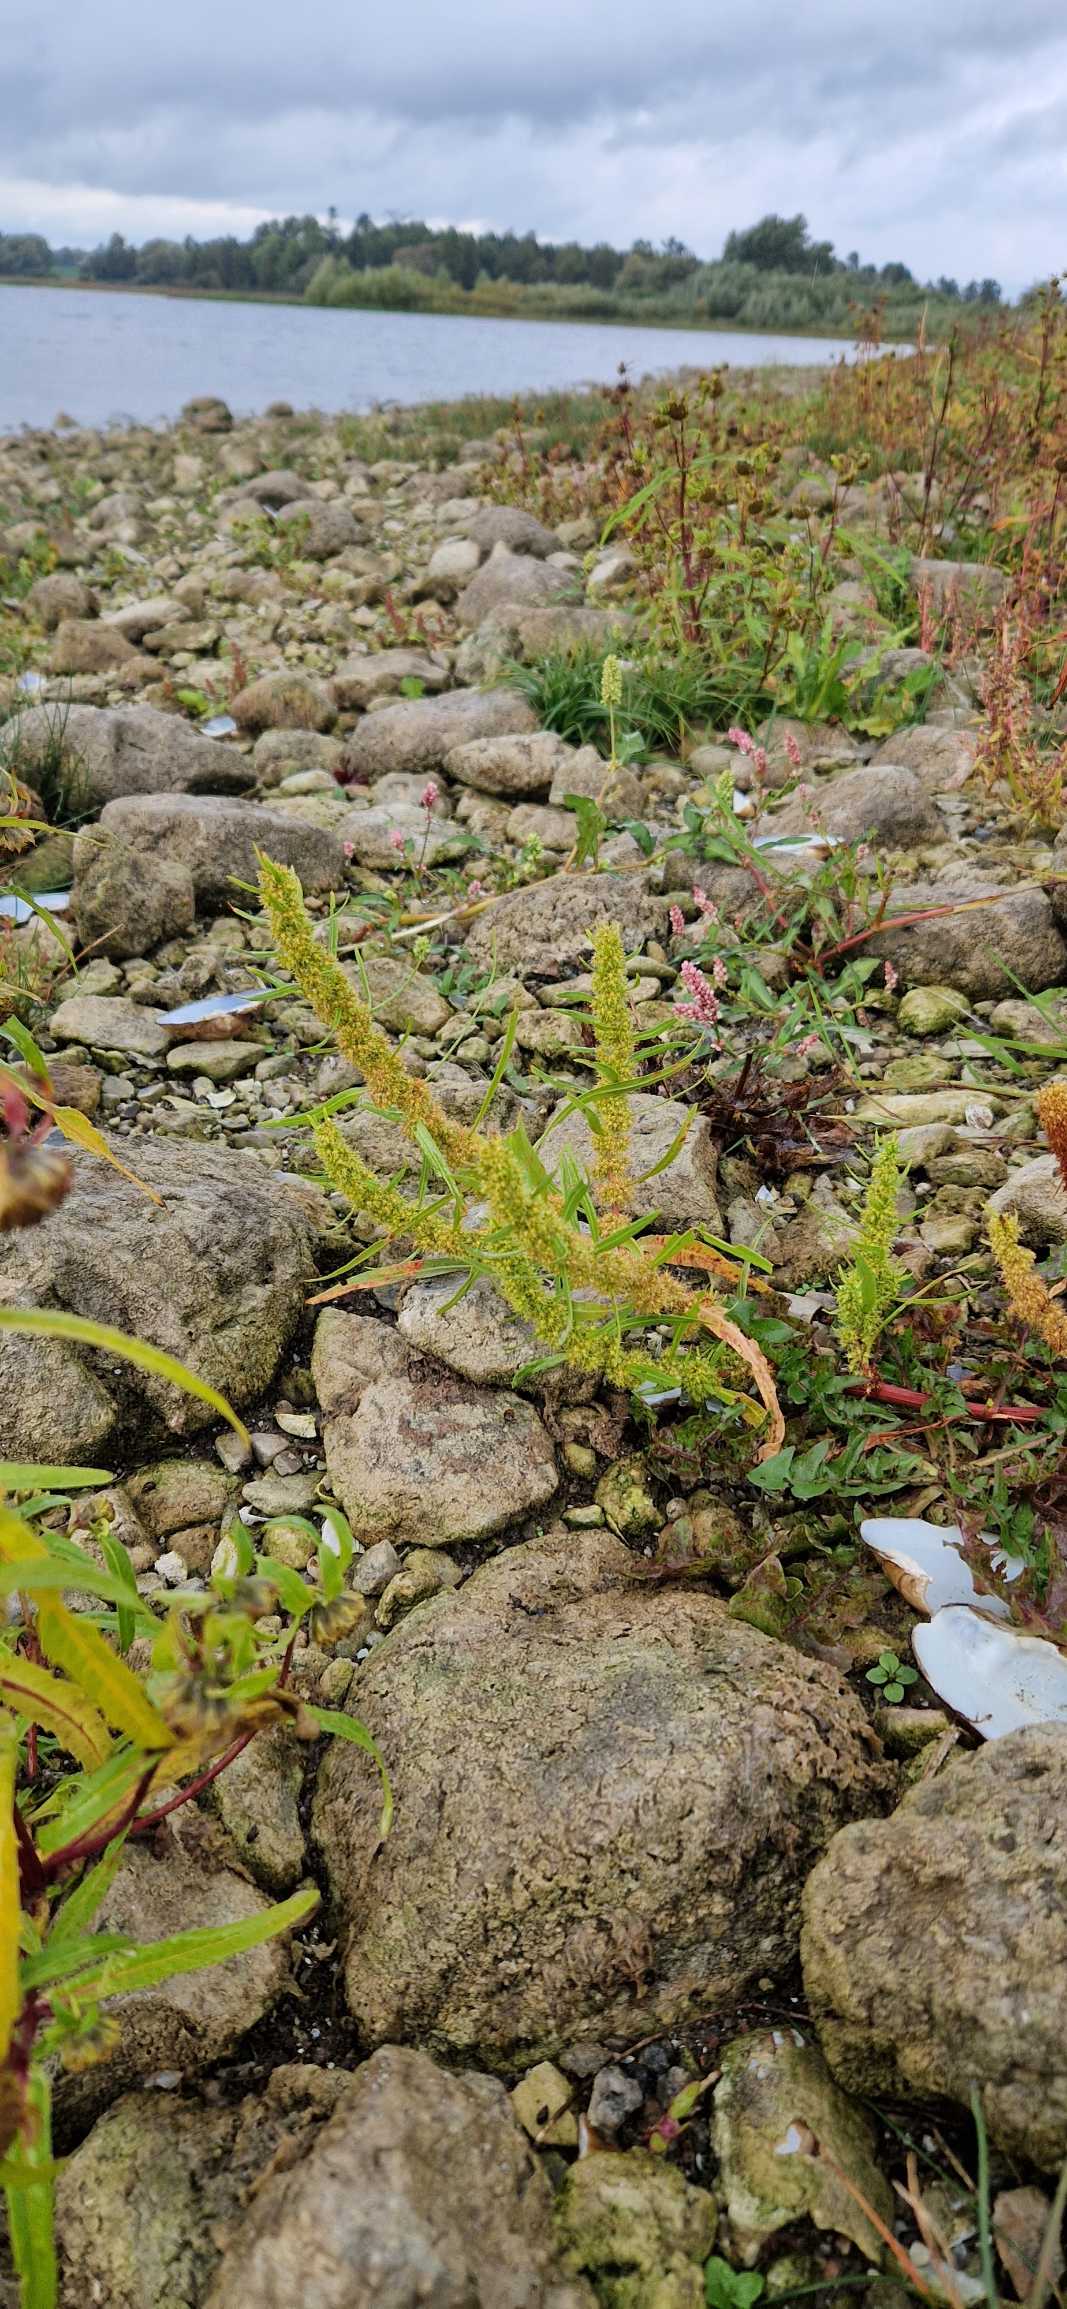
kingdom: Plantae
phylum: Tracheophyta
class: Magnoliopsida
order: Caryophyllales
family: Polygonaceae
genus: Rumex
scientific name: Rumex maritimus
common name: Strand-skræppe
